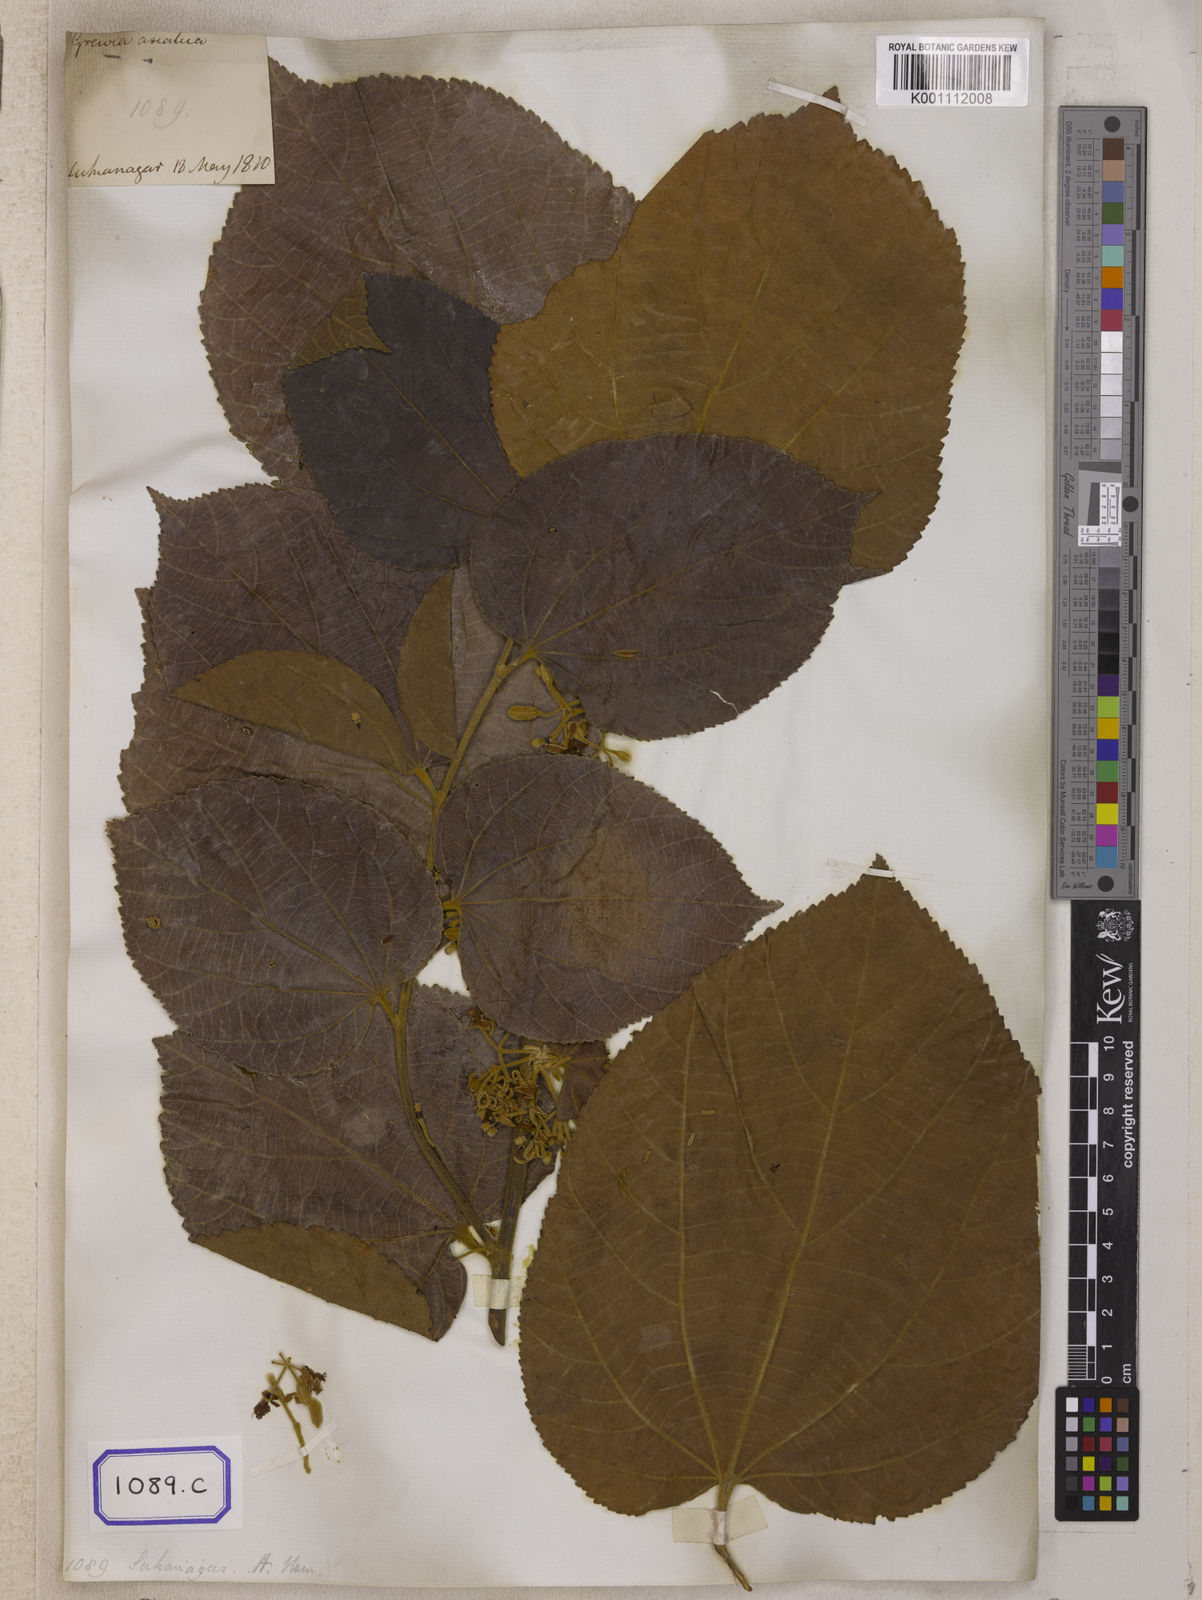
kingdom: Plantae
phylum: Tracheophyta
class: Magnoliopsida
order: Malvales
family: Malvaceae
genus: Grewia
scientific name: Grewia asiatica
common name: Phalsa
